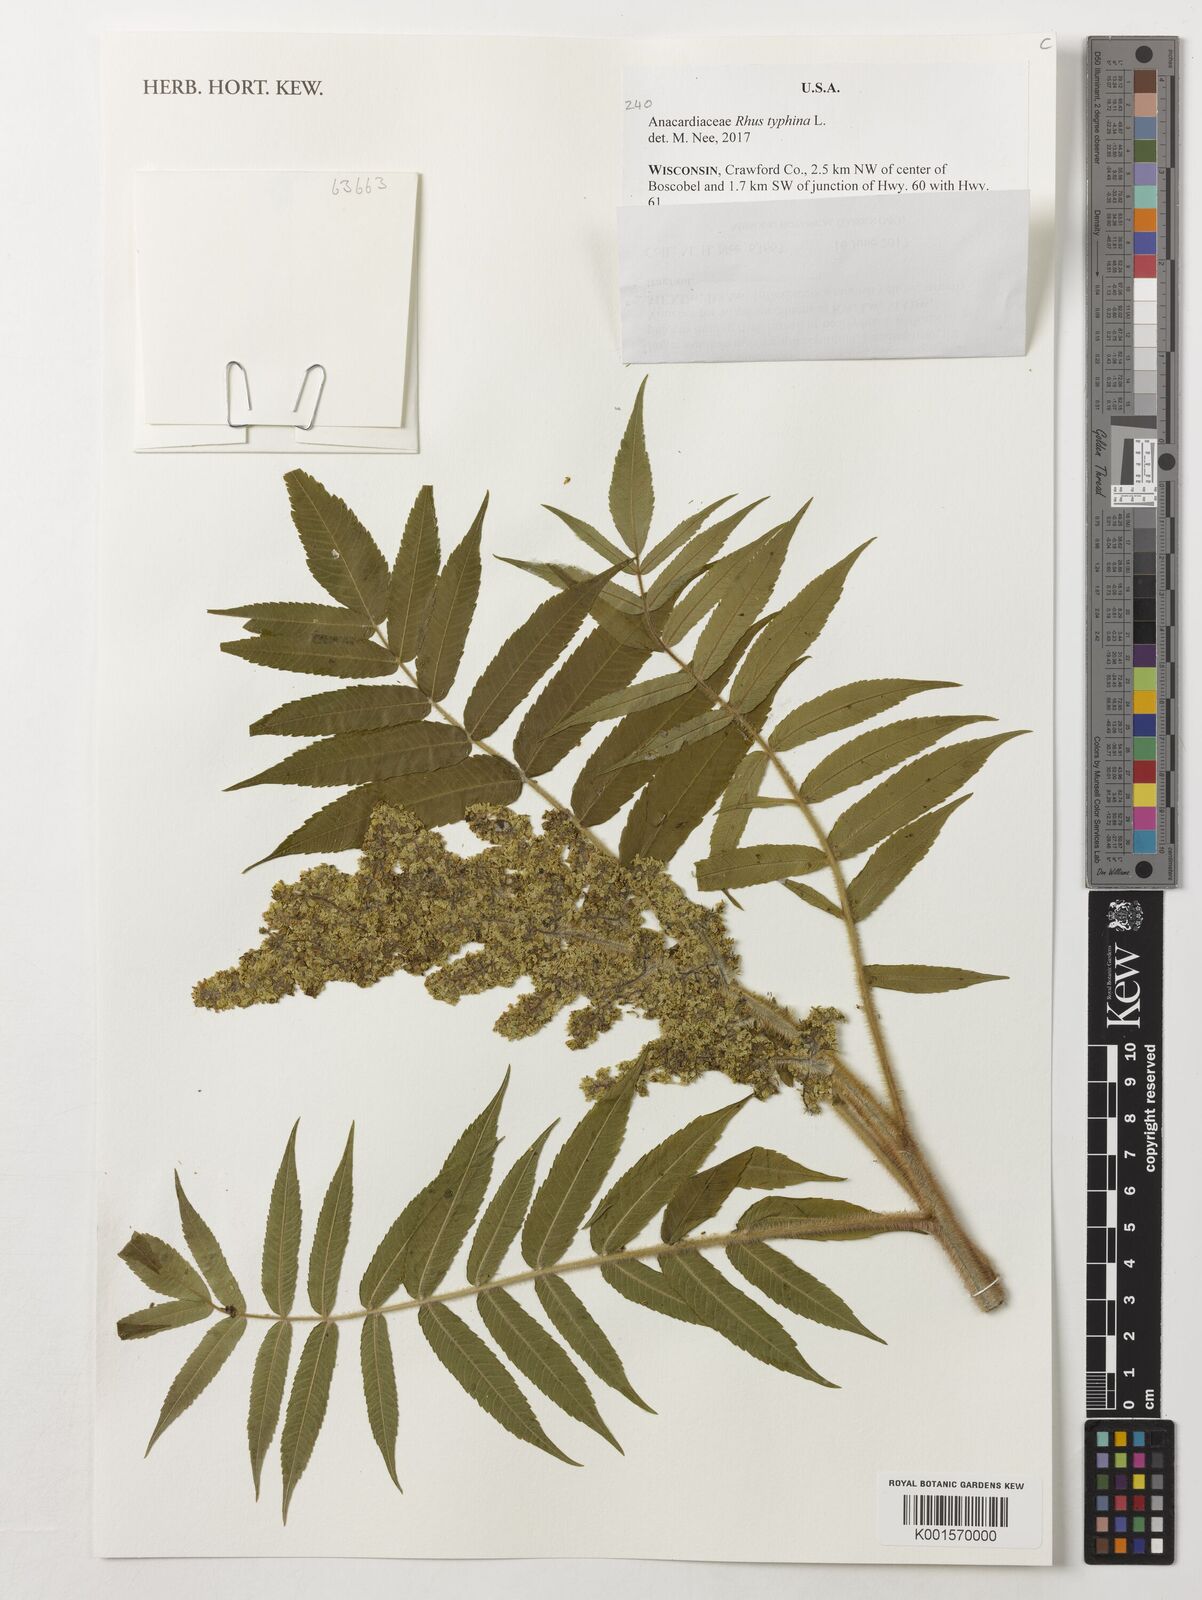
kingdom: Plantae
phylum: Tracheophyta
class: Magnoliopsida
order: Sapindales
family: Anacardiaceae
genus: Rhus
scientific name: Rhus typhina
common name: Staghorn sumac
